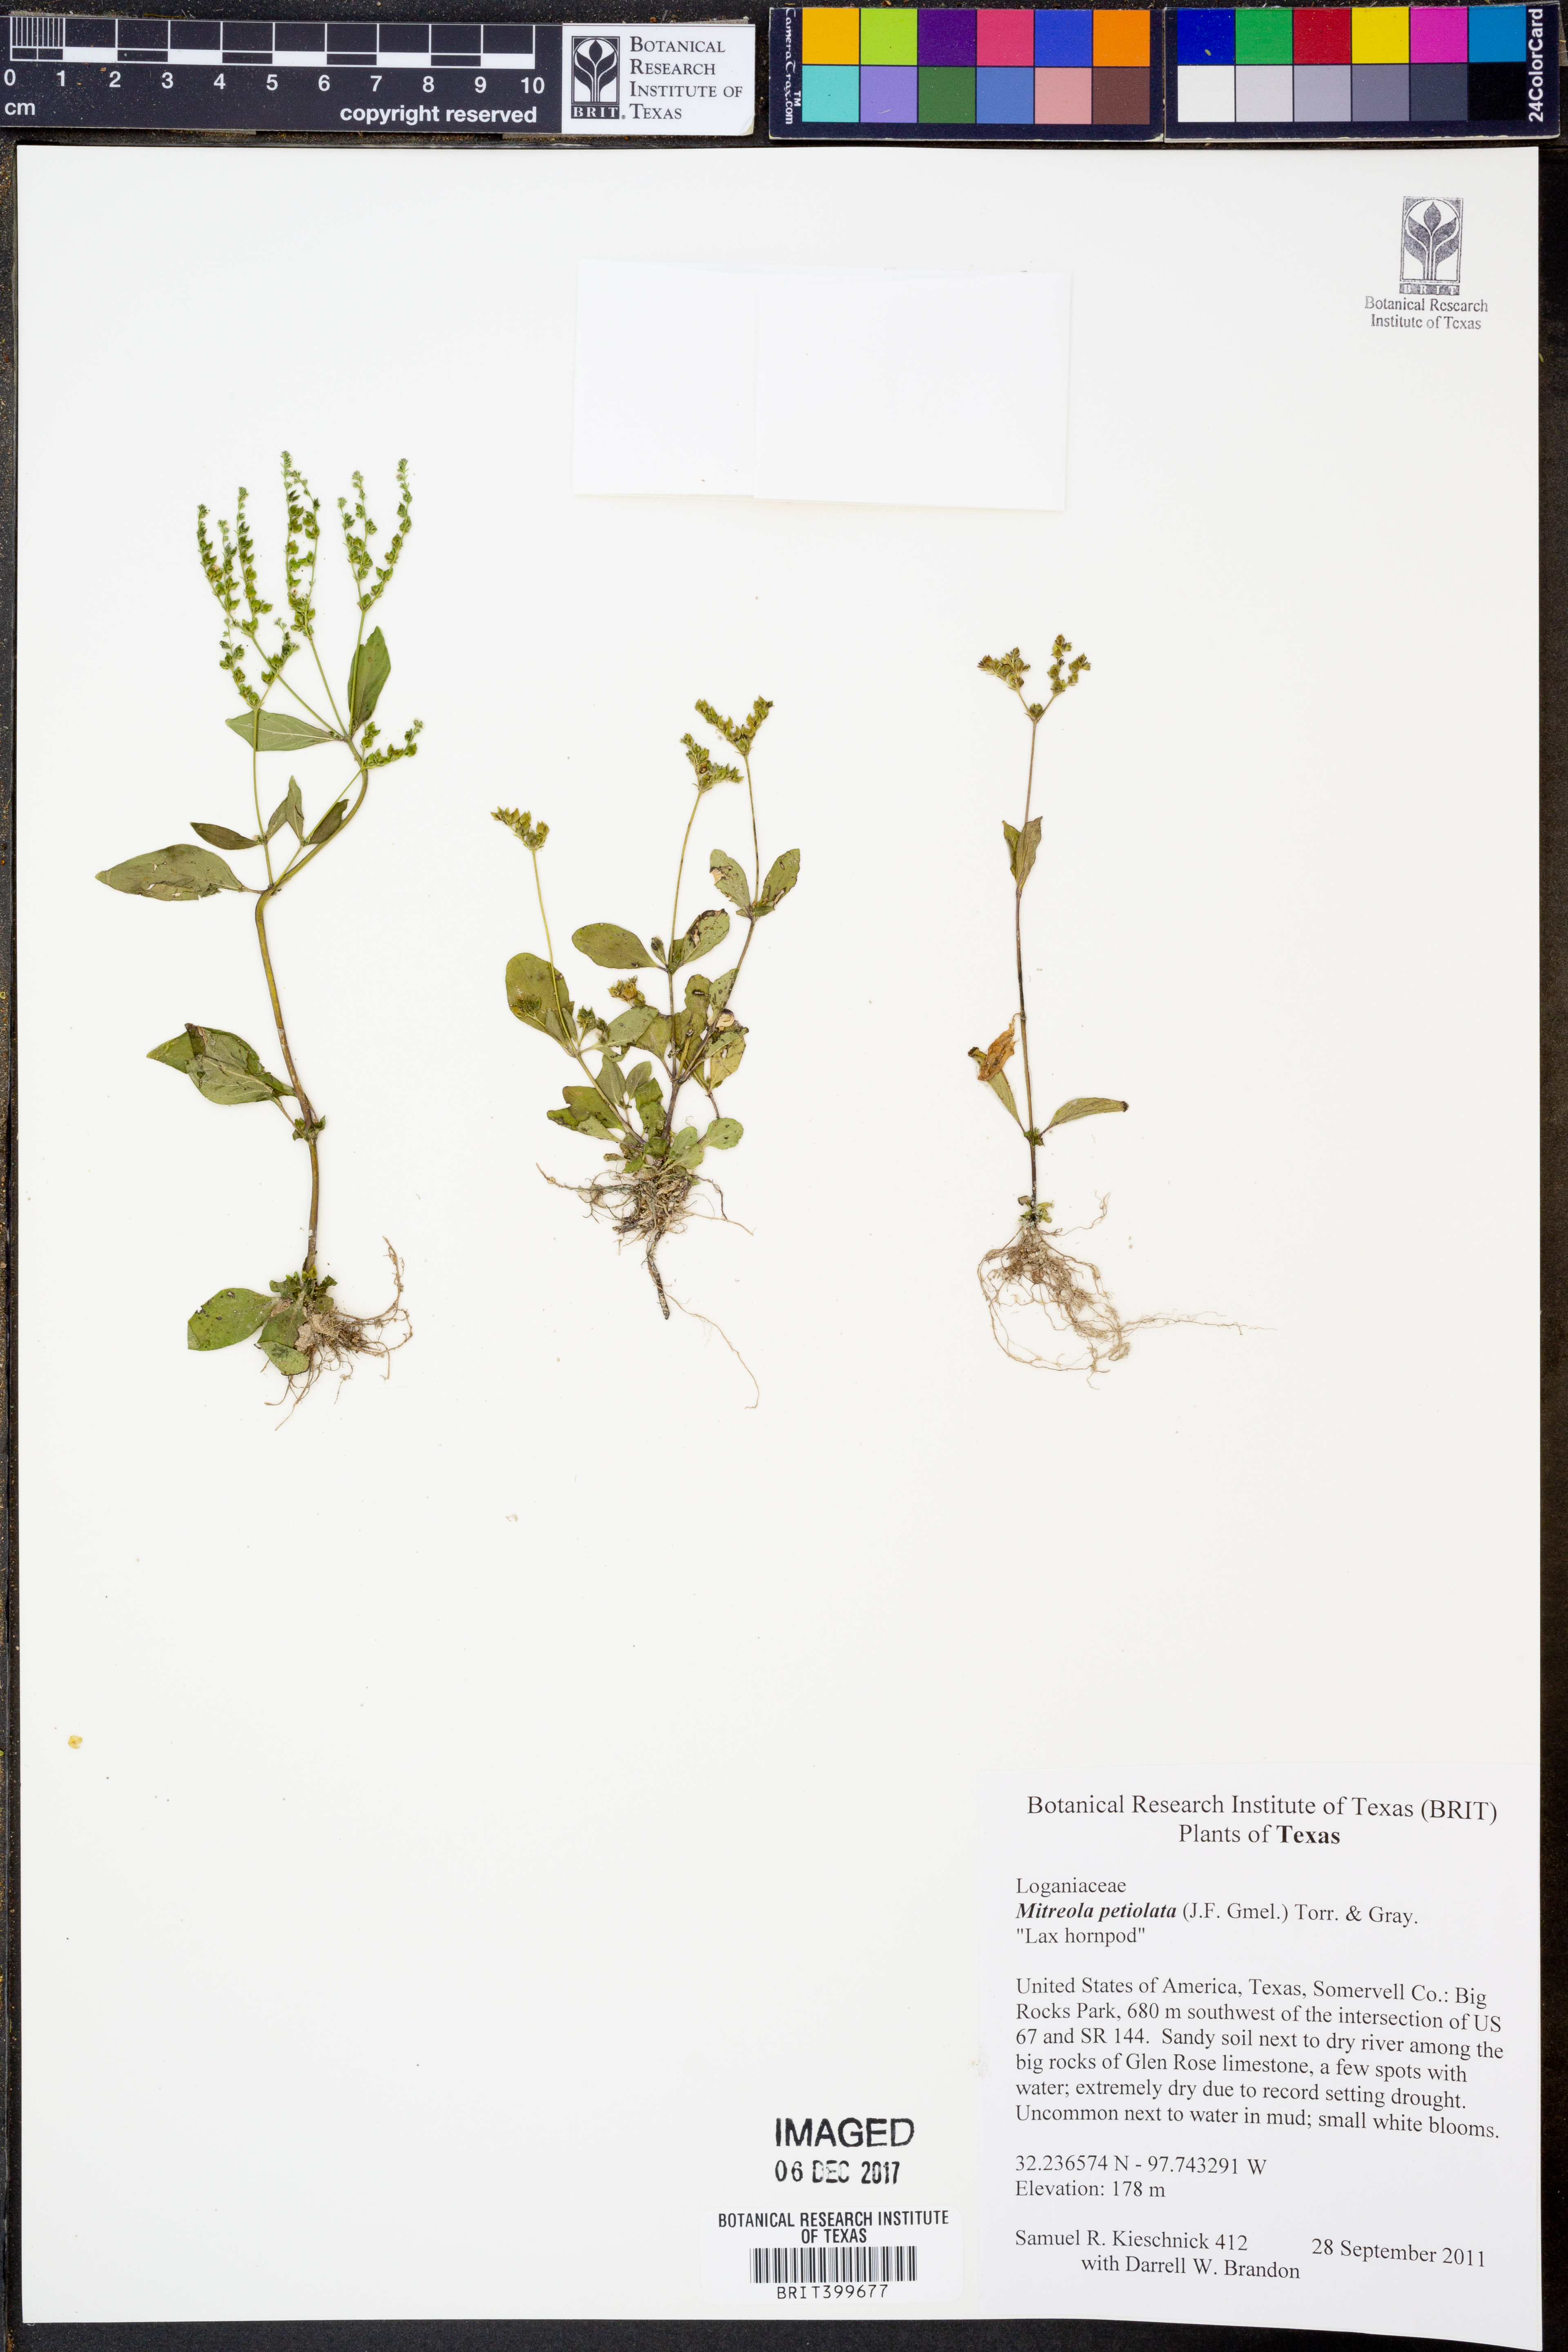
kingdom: Plantae
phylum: Tracheophyta
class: Magnoliopsida
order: Gentianales
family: Loganiaceae
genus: Mitreola
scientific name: Mitreola petiolata
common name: Lax hornpod
